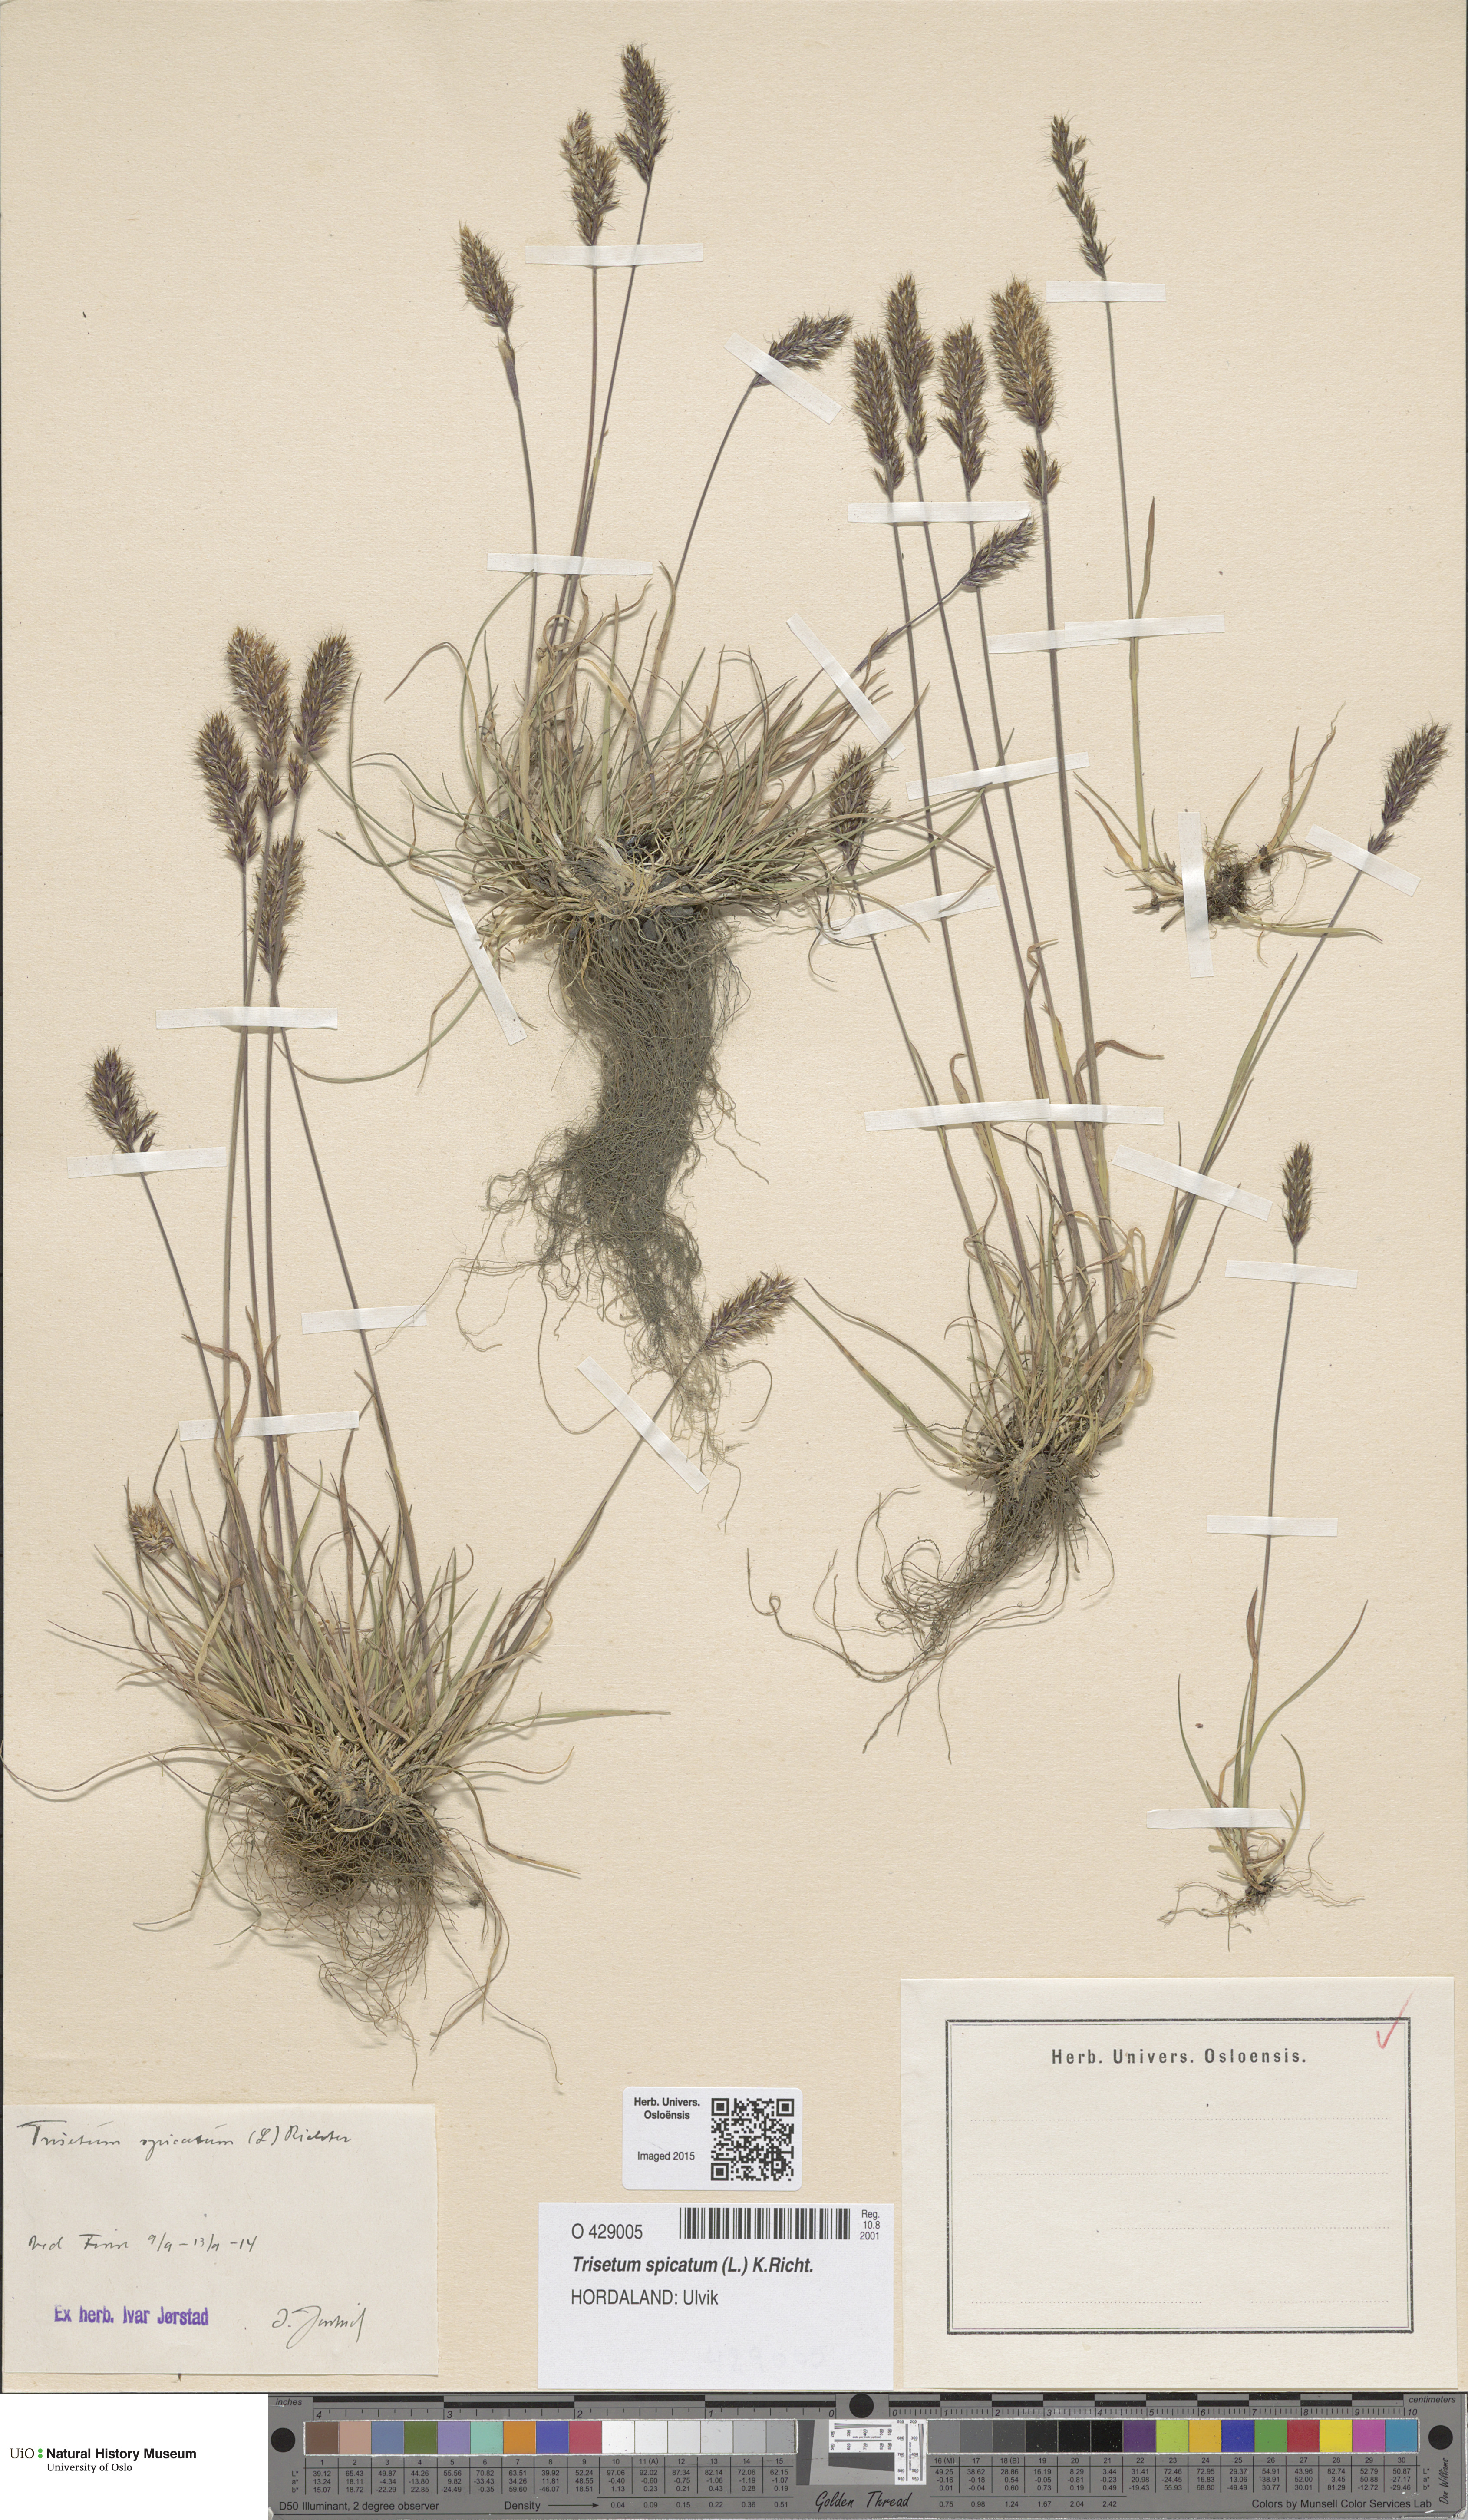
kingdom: Plantae
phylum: Tracheophyta
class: Liliopsida
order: Poales
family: Poaceae
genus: Koeleria
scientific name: Koeleria spicata
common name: Mountain trisetum
